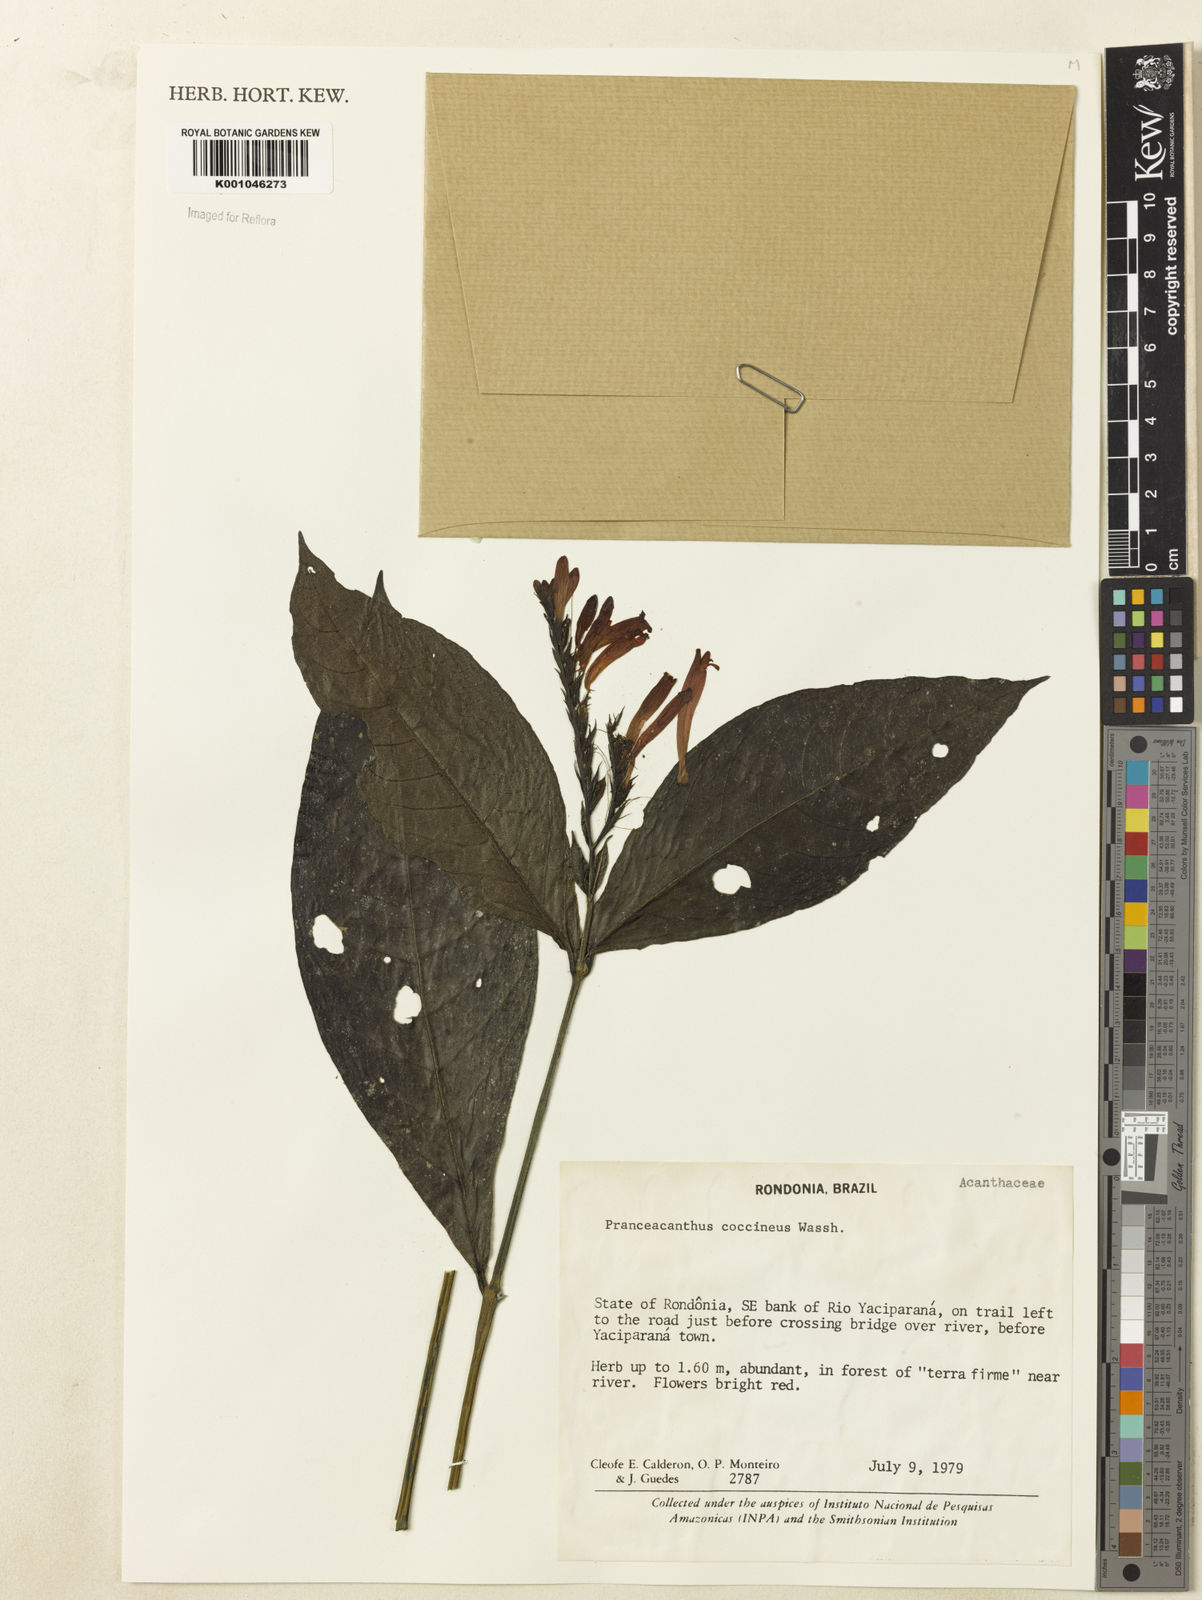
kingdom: Plantae
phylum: Tracheophyta
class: Magnoliopsida
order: Lamiales
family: Acanthaceae
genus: Pranceacanthus
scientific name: Pranceacanthus coccineus
